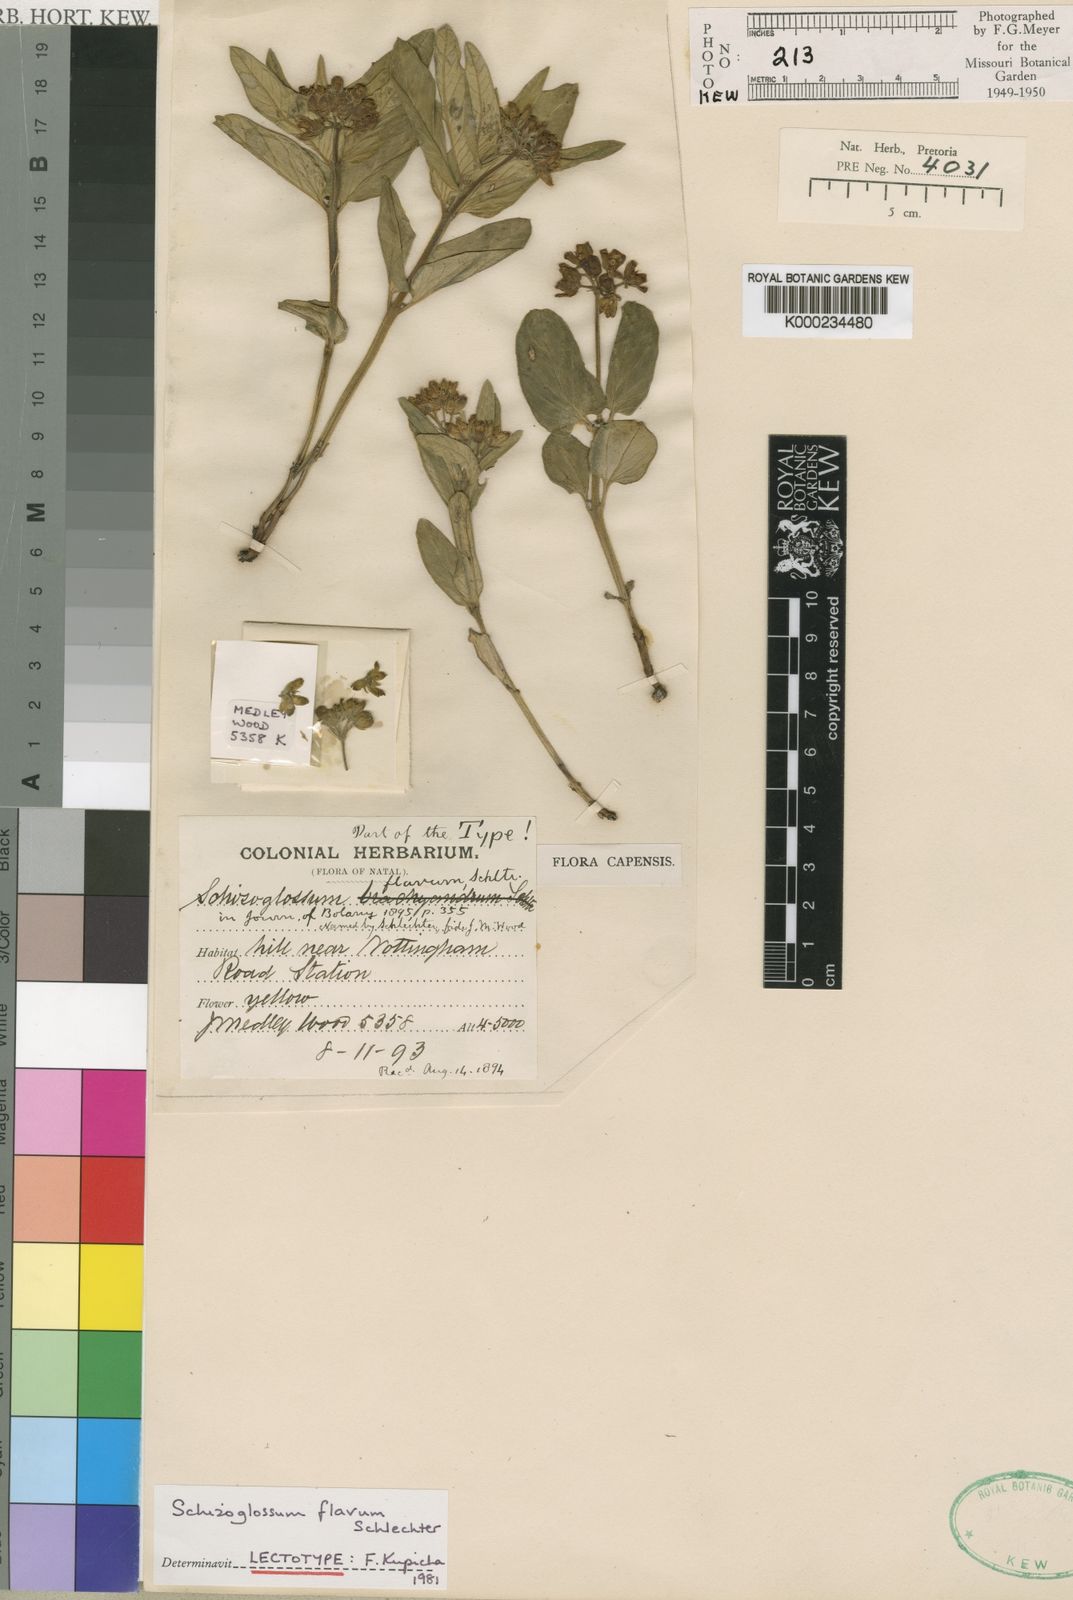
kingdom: Plantae
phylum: Tracheophyta
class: Magnoliopsida
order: Gentianales
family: Apocynaceae
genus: Schizoglossum
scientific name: Schizoglossum flavum
